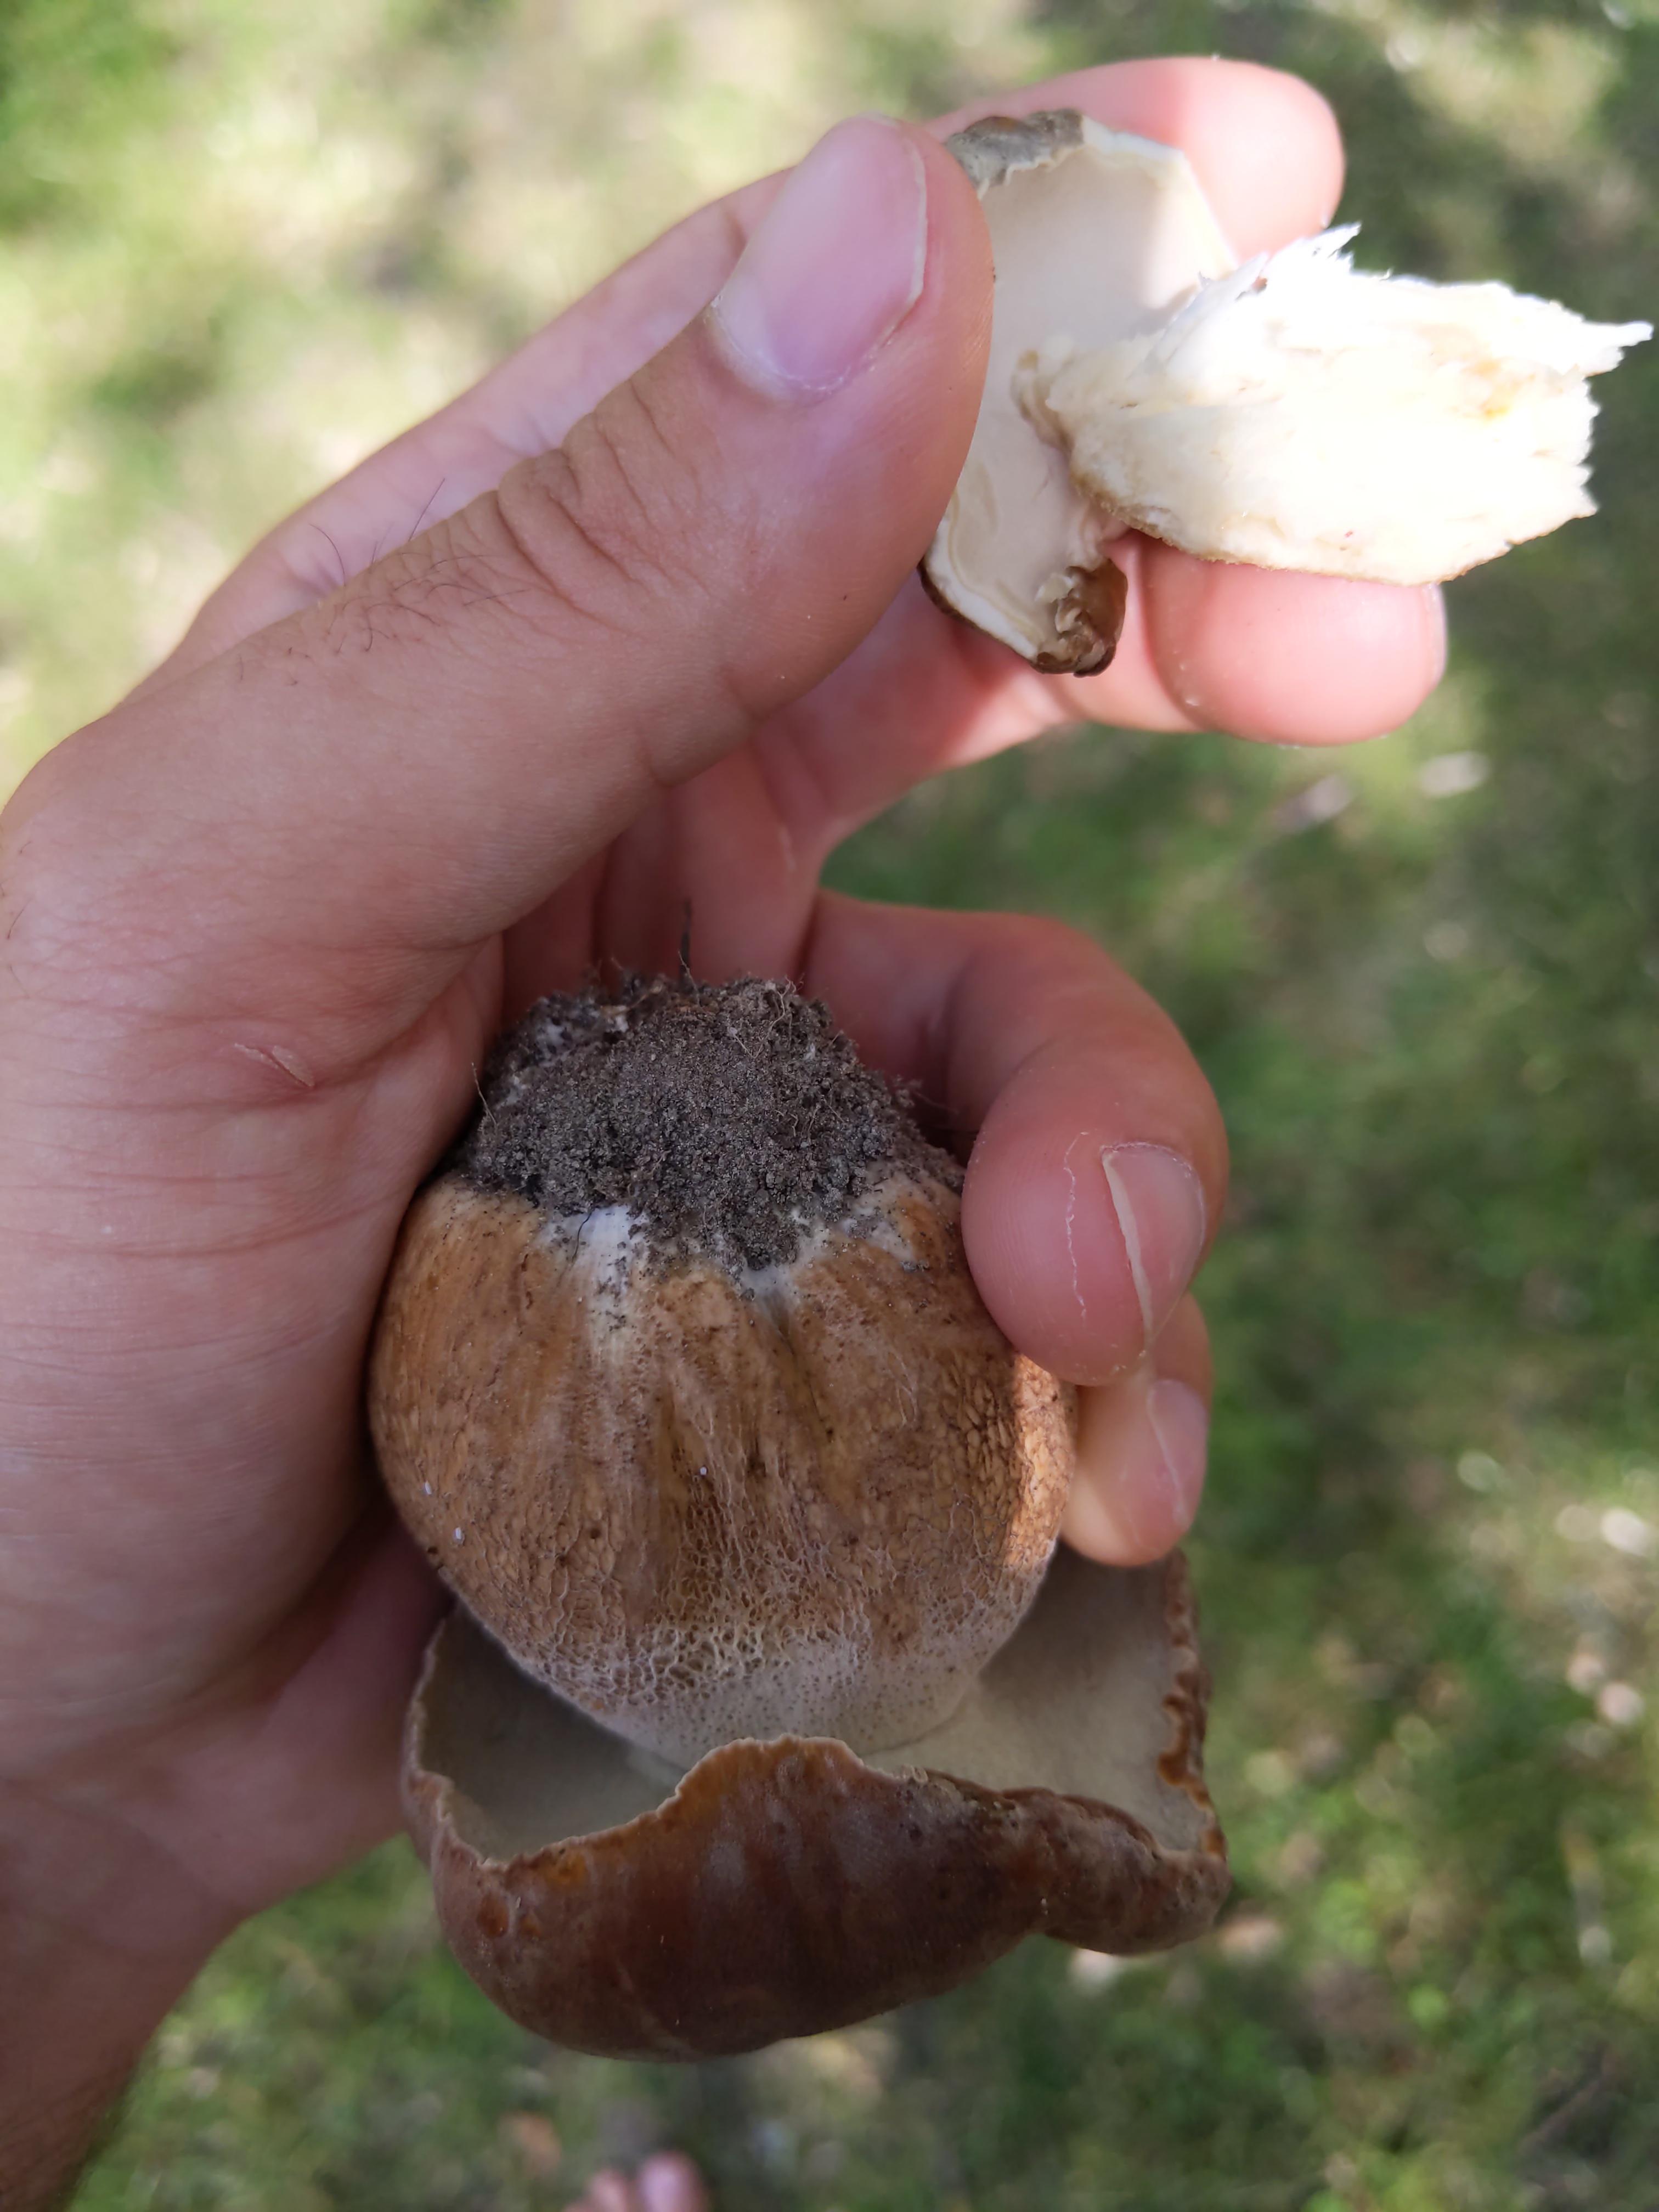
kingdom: Fungi
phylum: Basidiomycota
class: Agaricomycetes
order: Boletales
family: Boletaceae
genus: Boletus
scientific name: Boletus edulis
